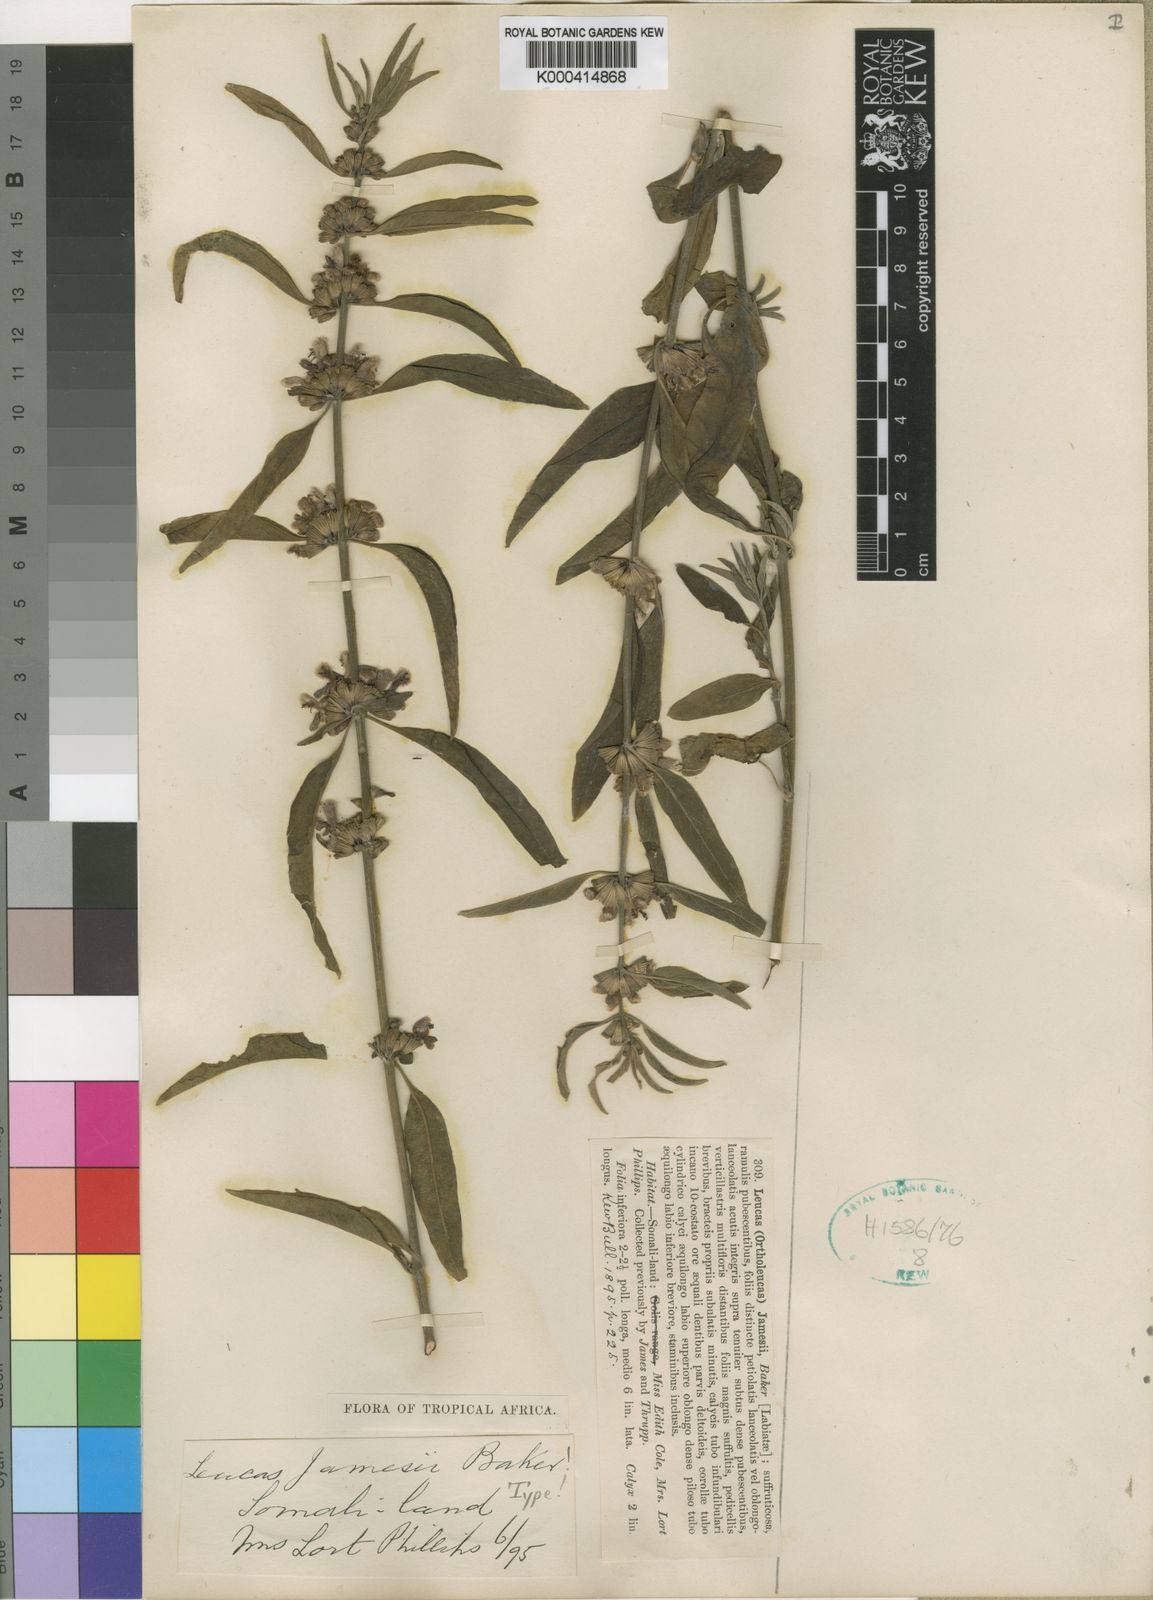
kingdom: Plantae
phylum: Tracheophyta
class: Magnoliopsida
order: Lamiales
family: Lamiaceae
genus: Leucas
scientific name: Leucas jamesii
